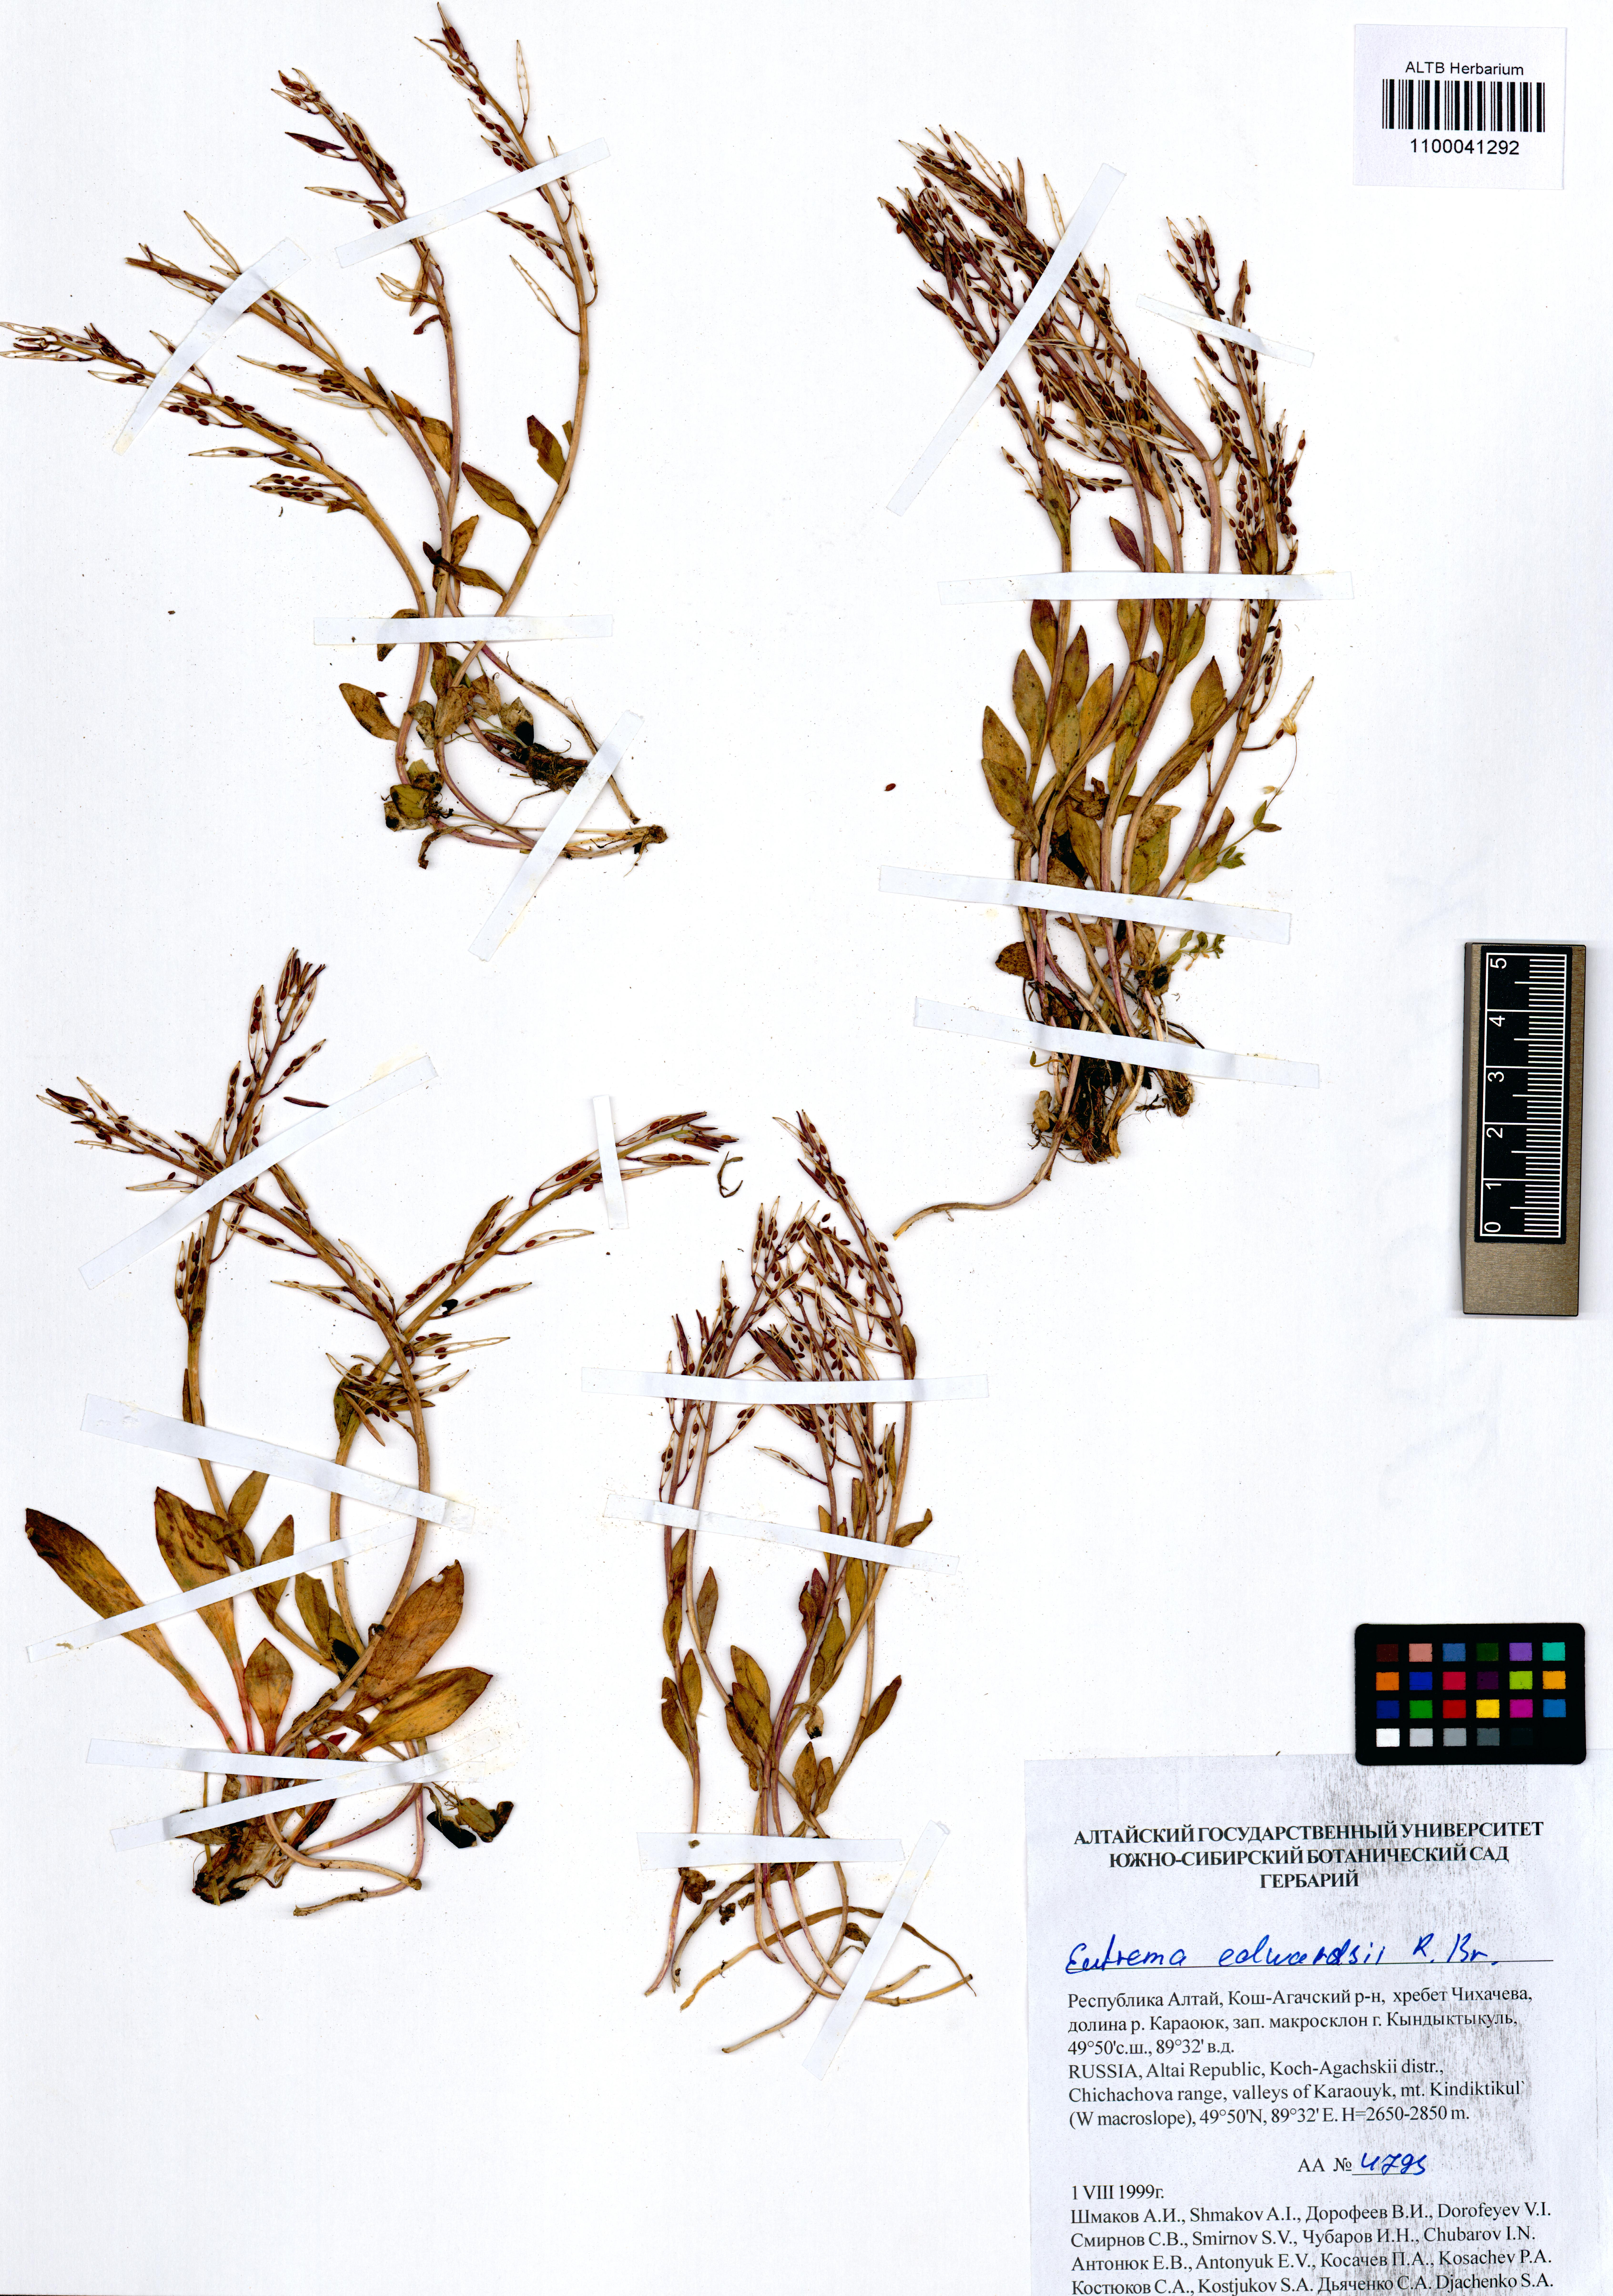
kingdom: Plantae
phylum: Tracheophyta
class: Magnoliopsida
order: Brassicales
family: Brassicaceae
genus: Eutrema
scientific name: Eutrema edwardsii
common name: Penland alpine fen mustard
